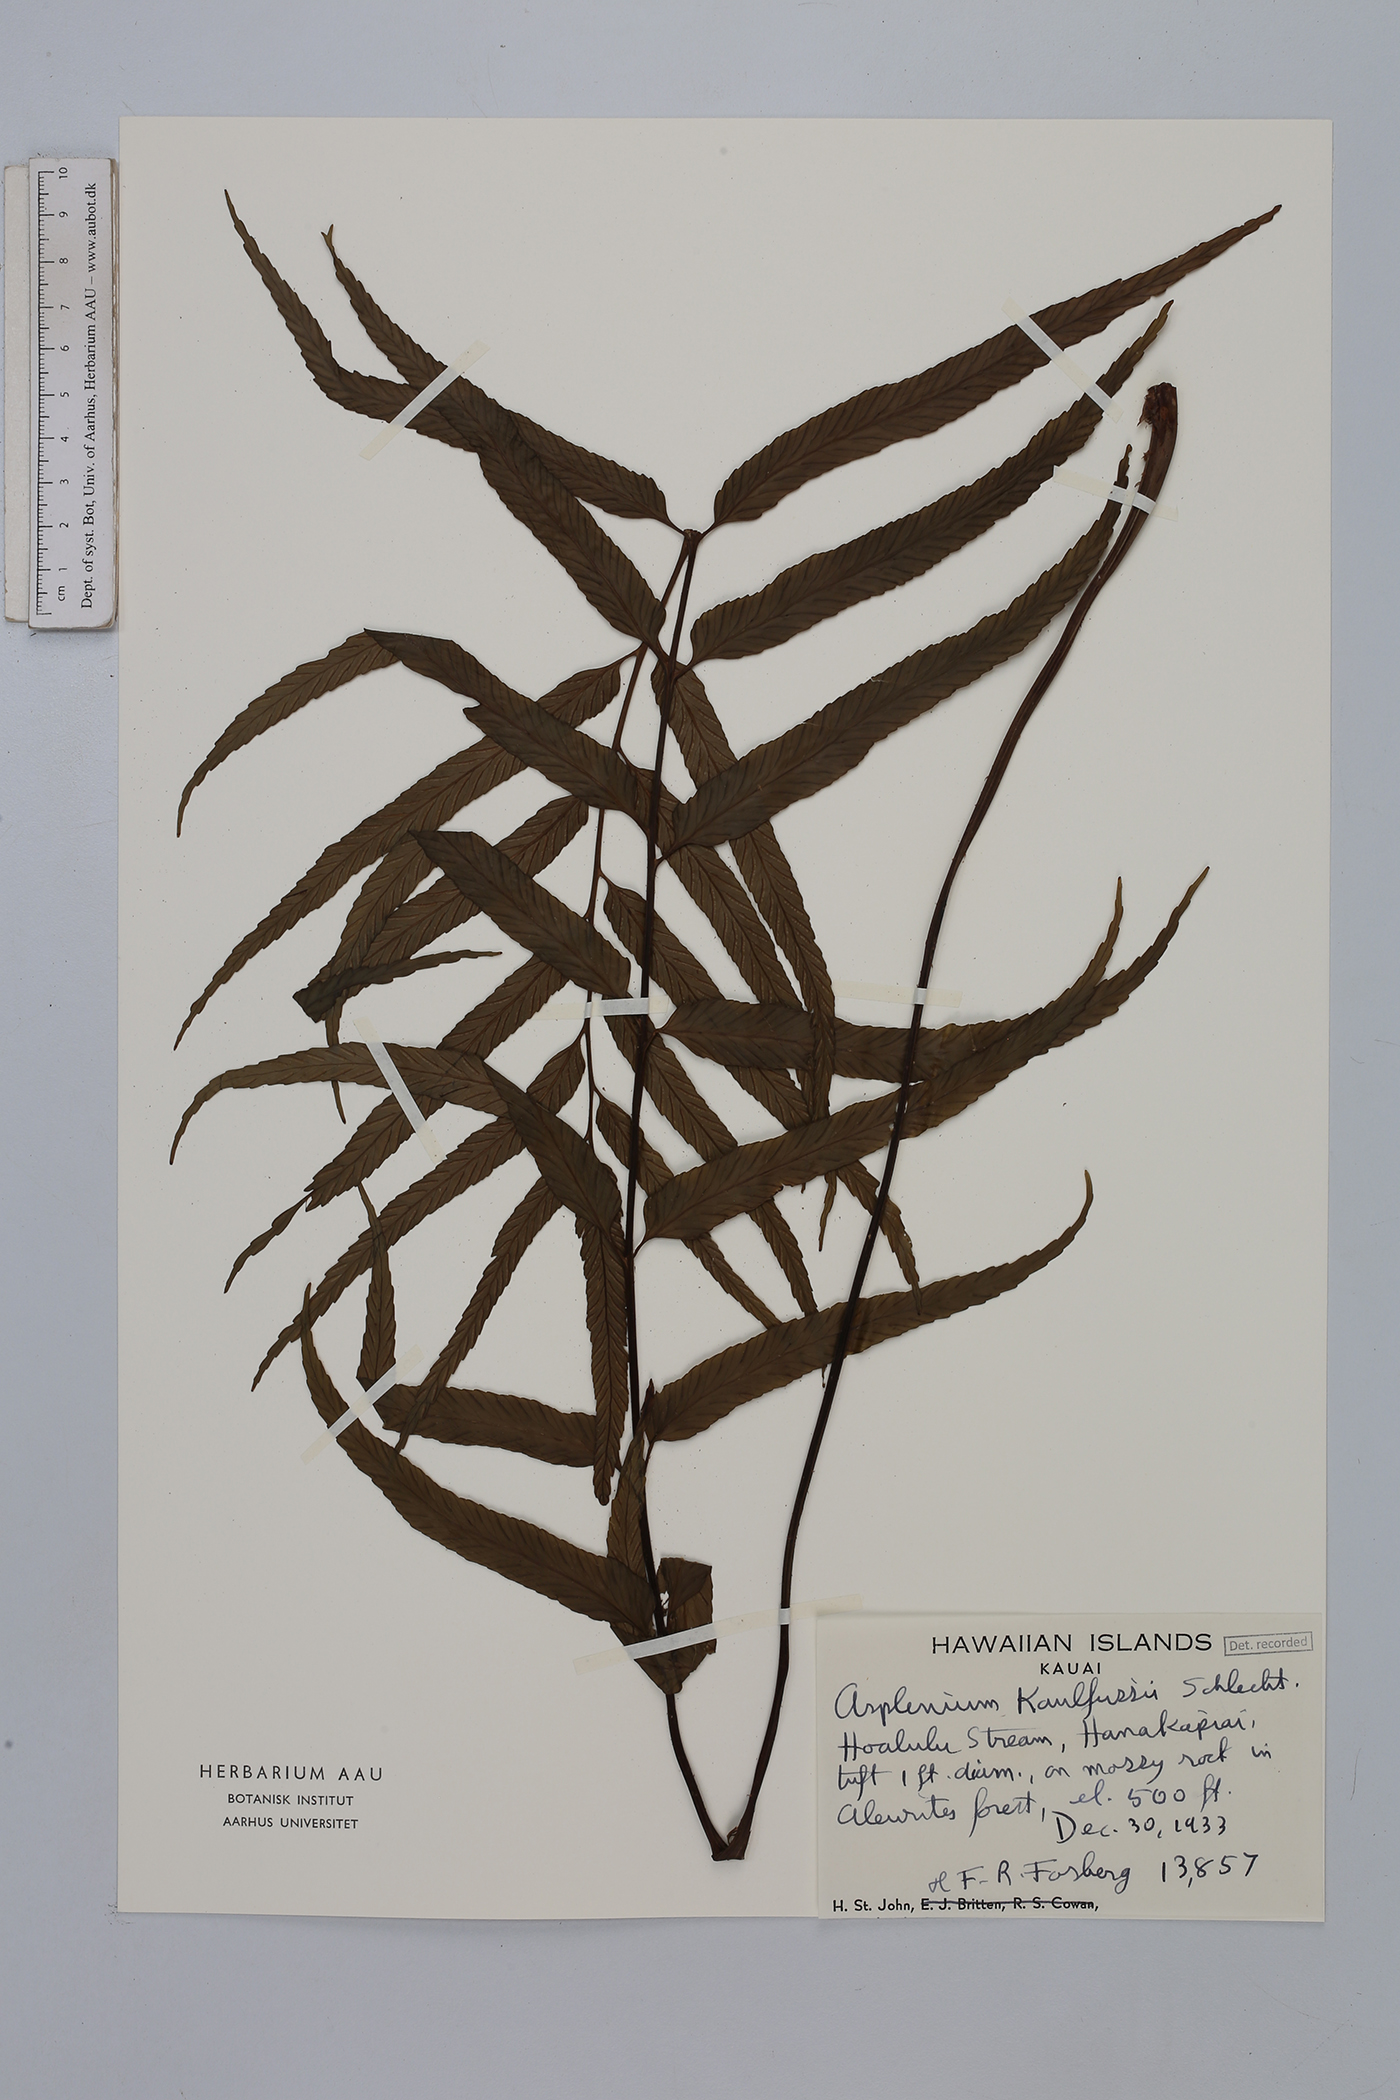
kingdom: Plantae
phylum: Tracheophyta
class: Polypodiopsida
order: Polypodiales
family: Aspleniaceae
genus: Asplenium
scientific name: Asplenium kaulfussii
